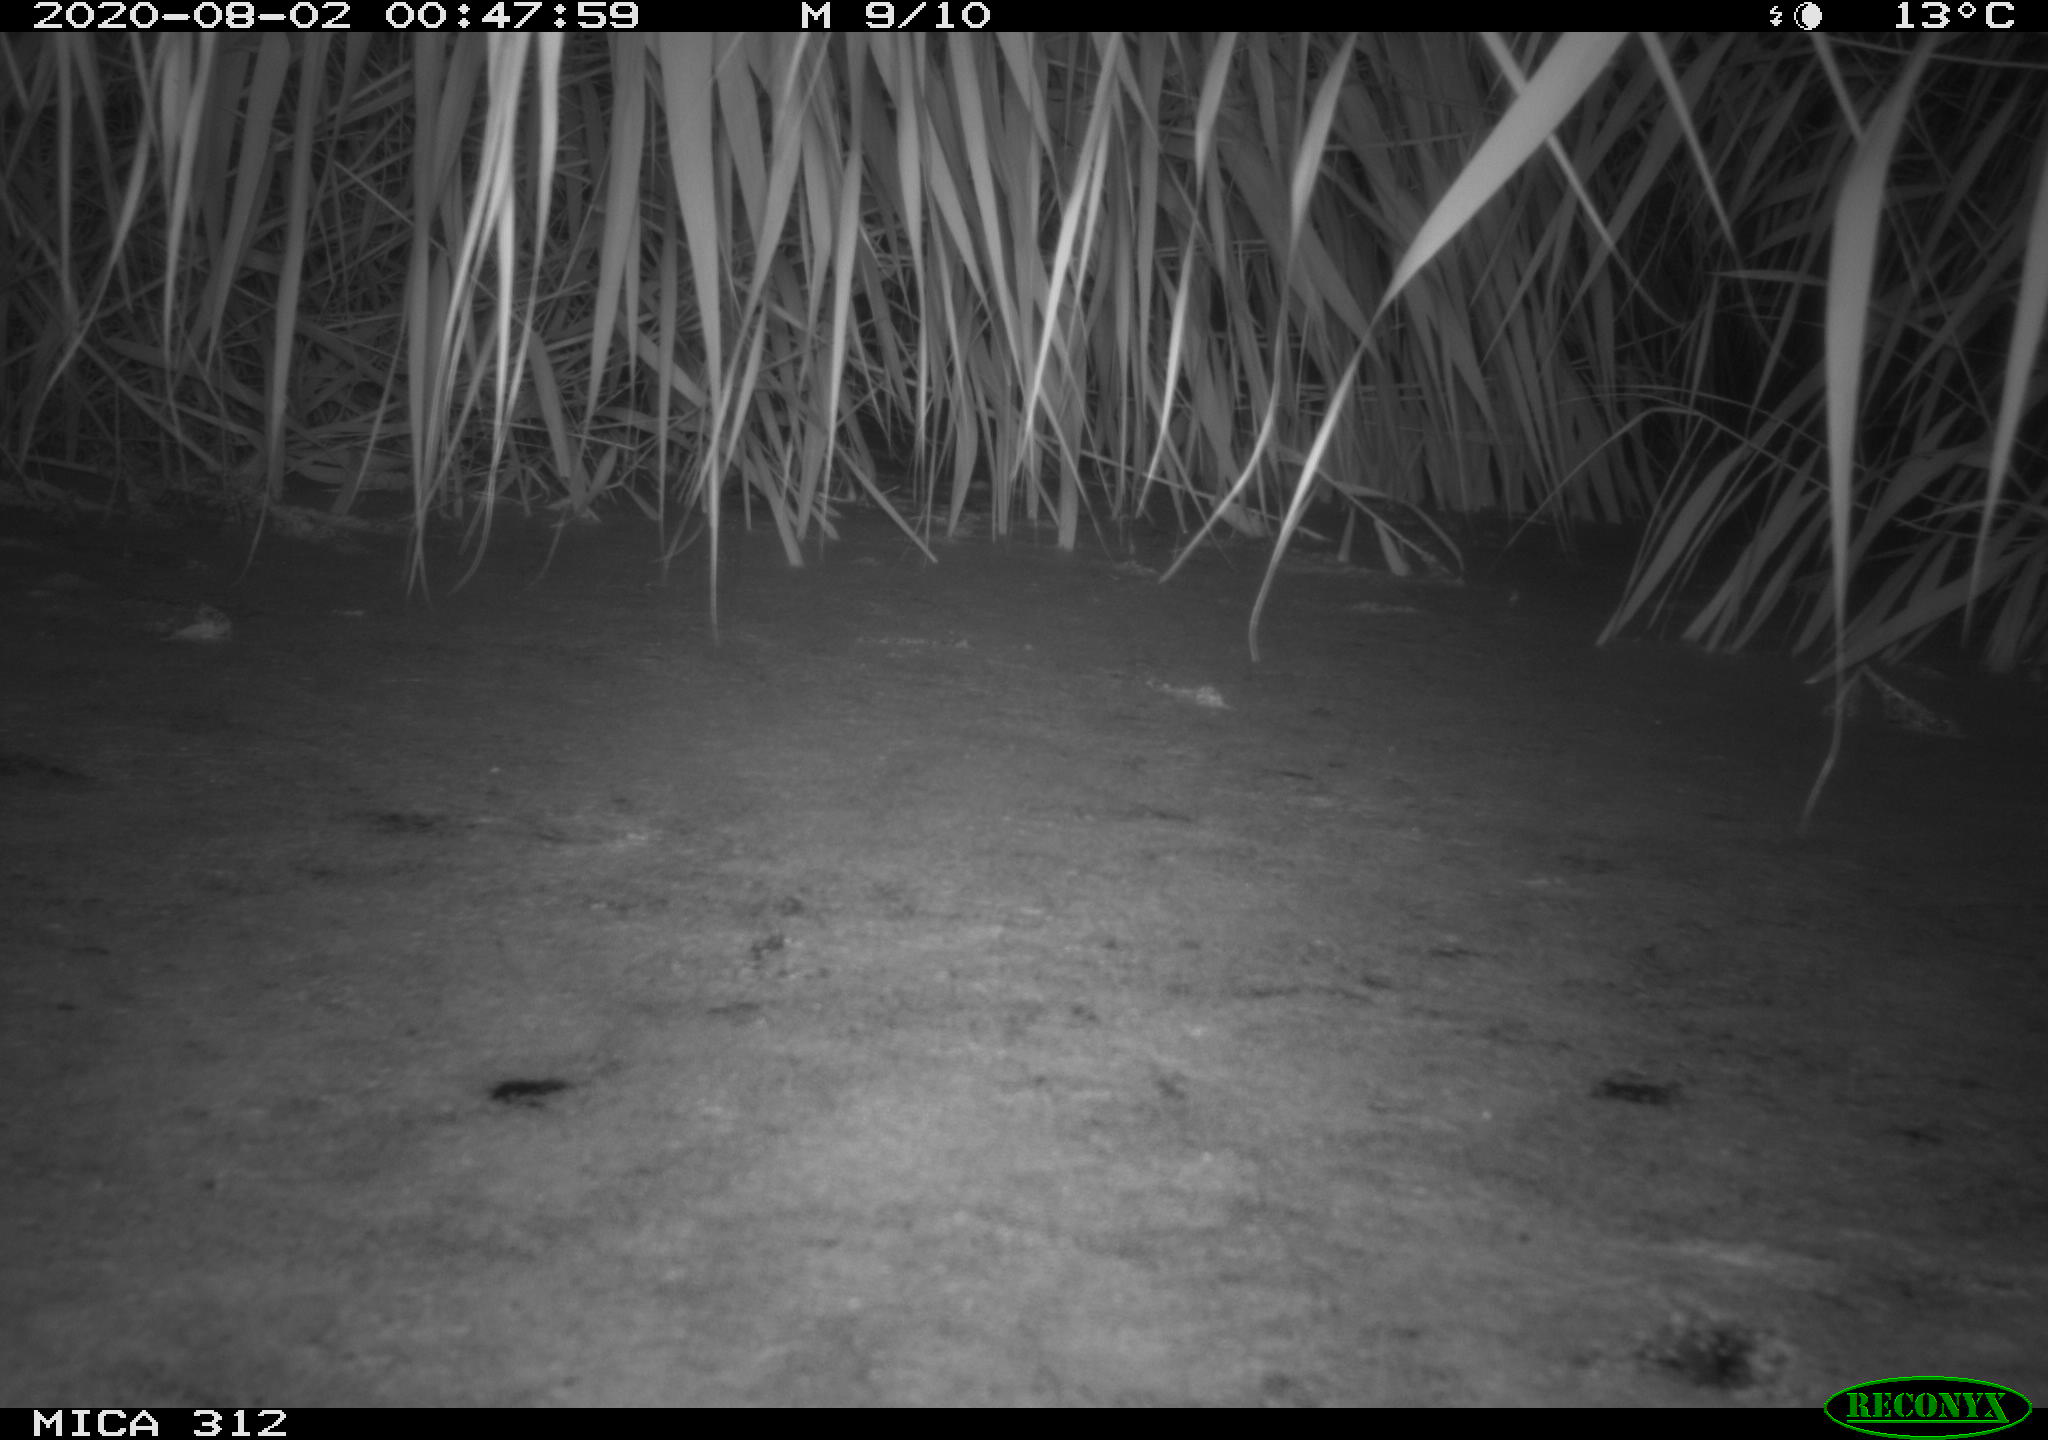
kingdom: Animalia
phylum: Chordata
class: Mammalia
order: Rodentia
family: Muridae
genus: Rattus
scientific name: Rattus norvegicus
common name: Brown rat
